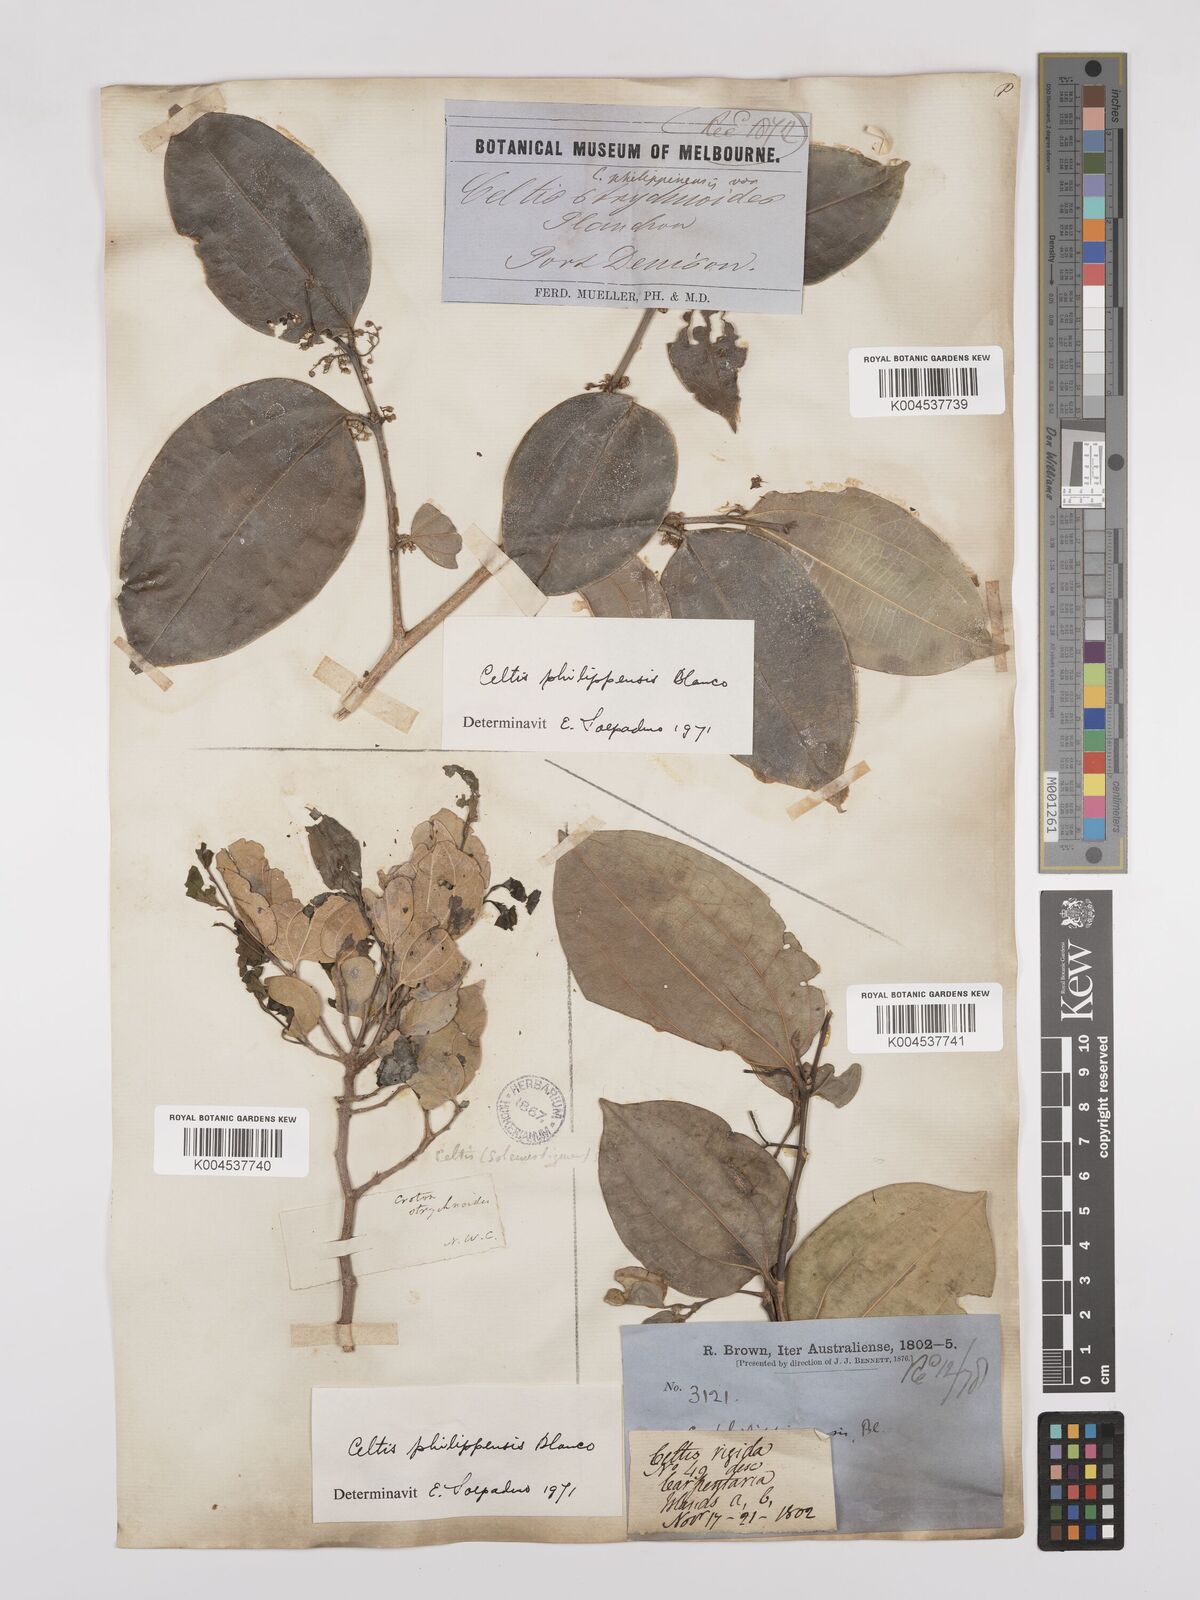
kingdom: Plantae
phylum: Tracheophyta
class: Magnoliopsida
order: Rosales
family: Cannabaceae
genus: Celtis
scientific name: Celtis philippensis
